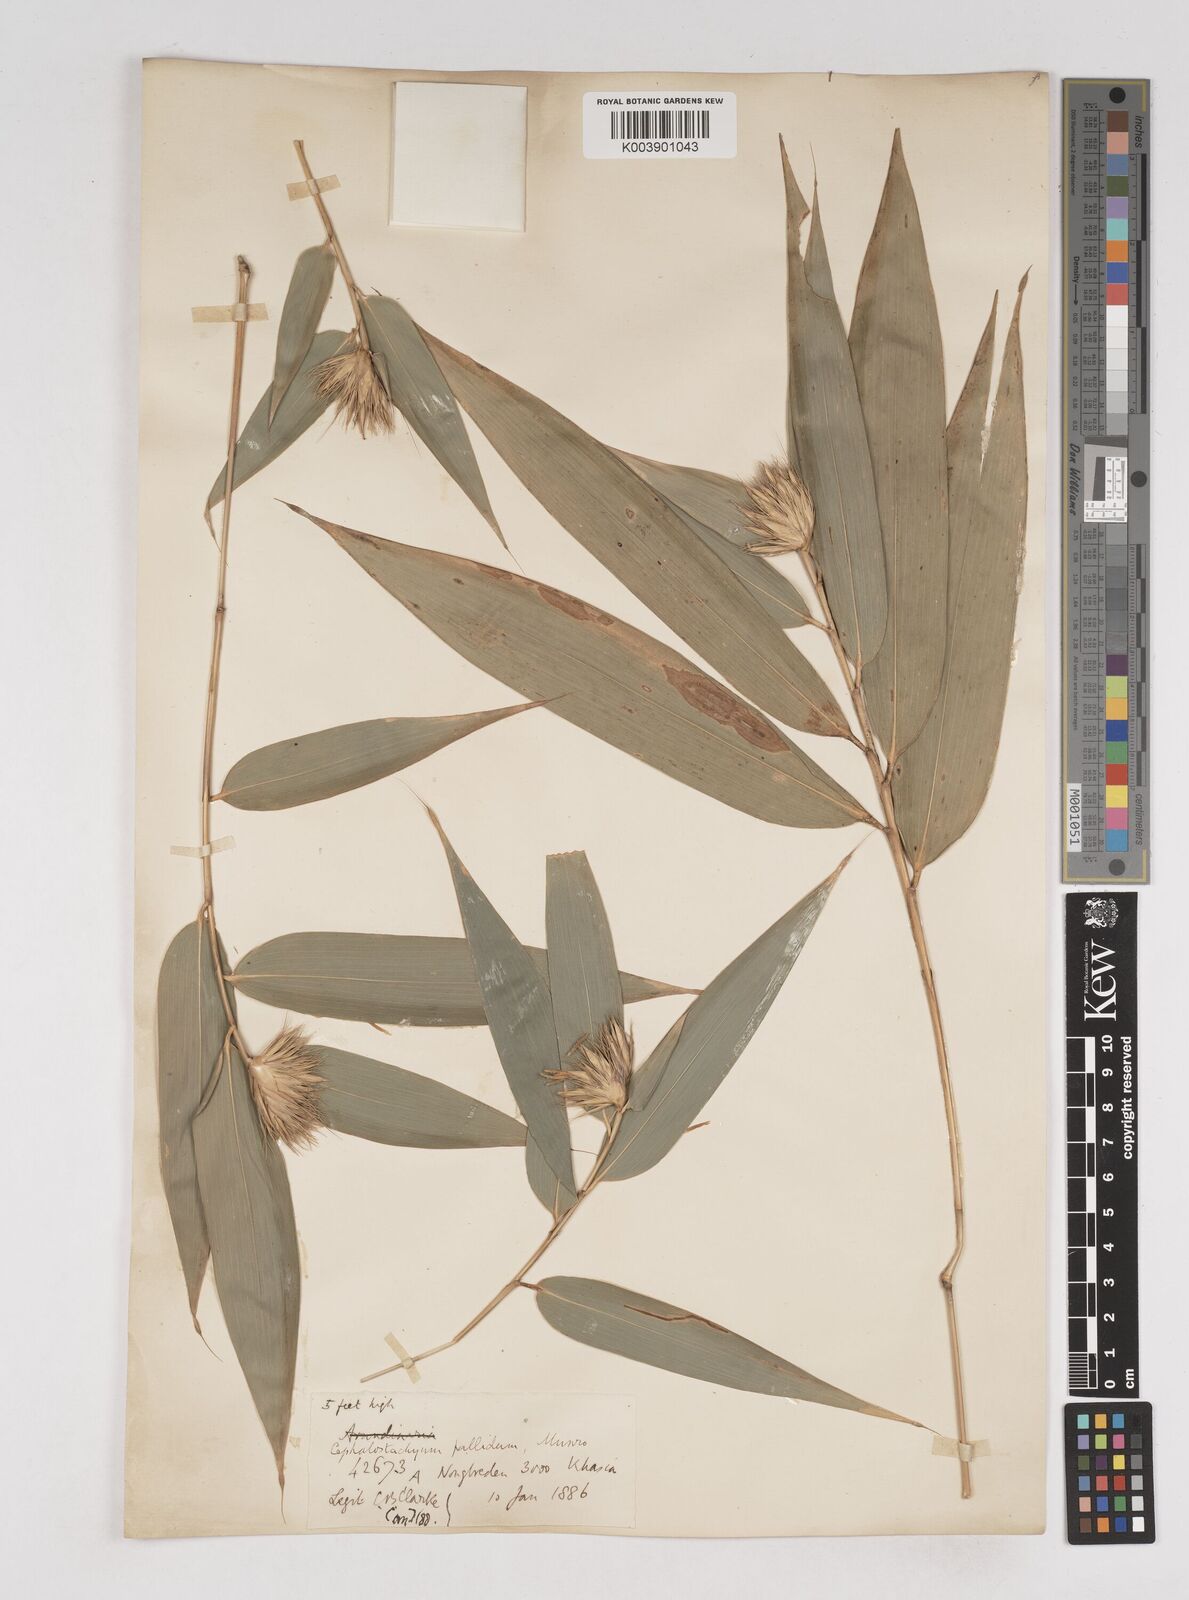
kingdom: Plantae
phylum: Tracheophyta
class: Liliopsida
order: Poales
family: Poaceae
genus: Cephalostachyum
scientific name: Cephalostachyum pallidum
